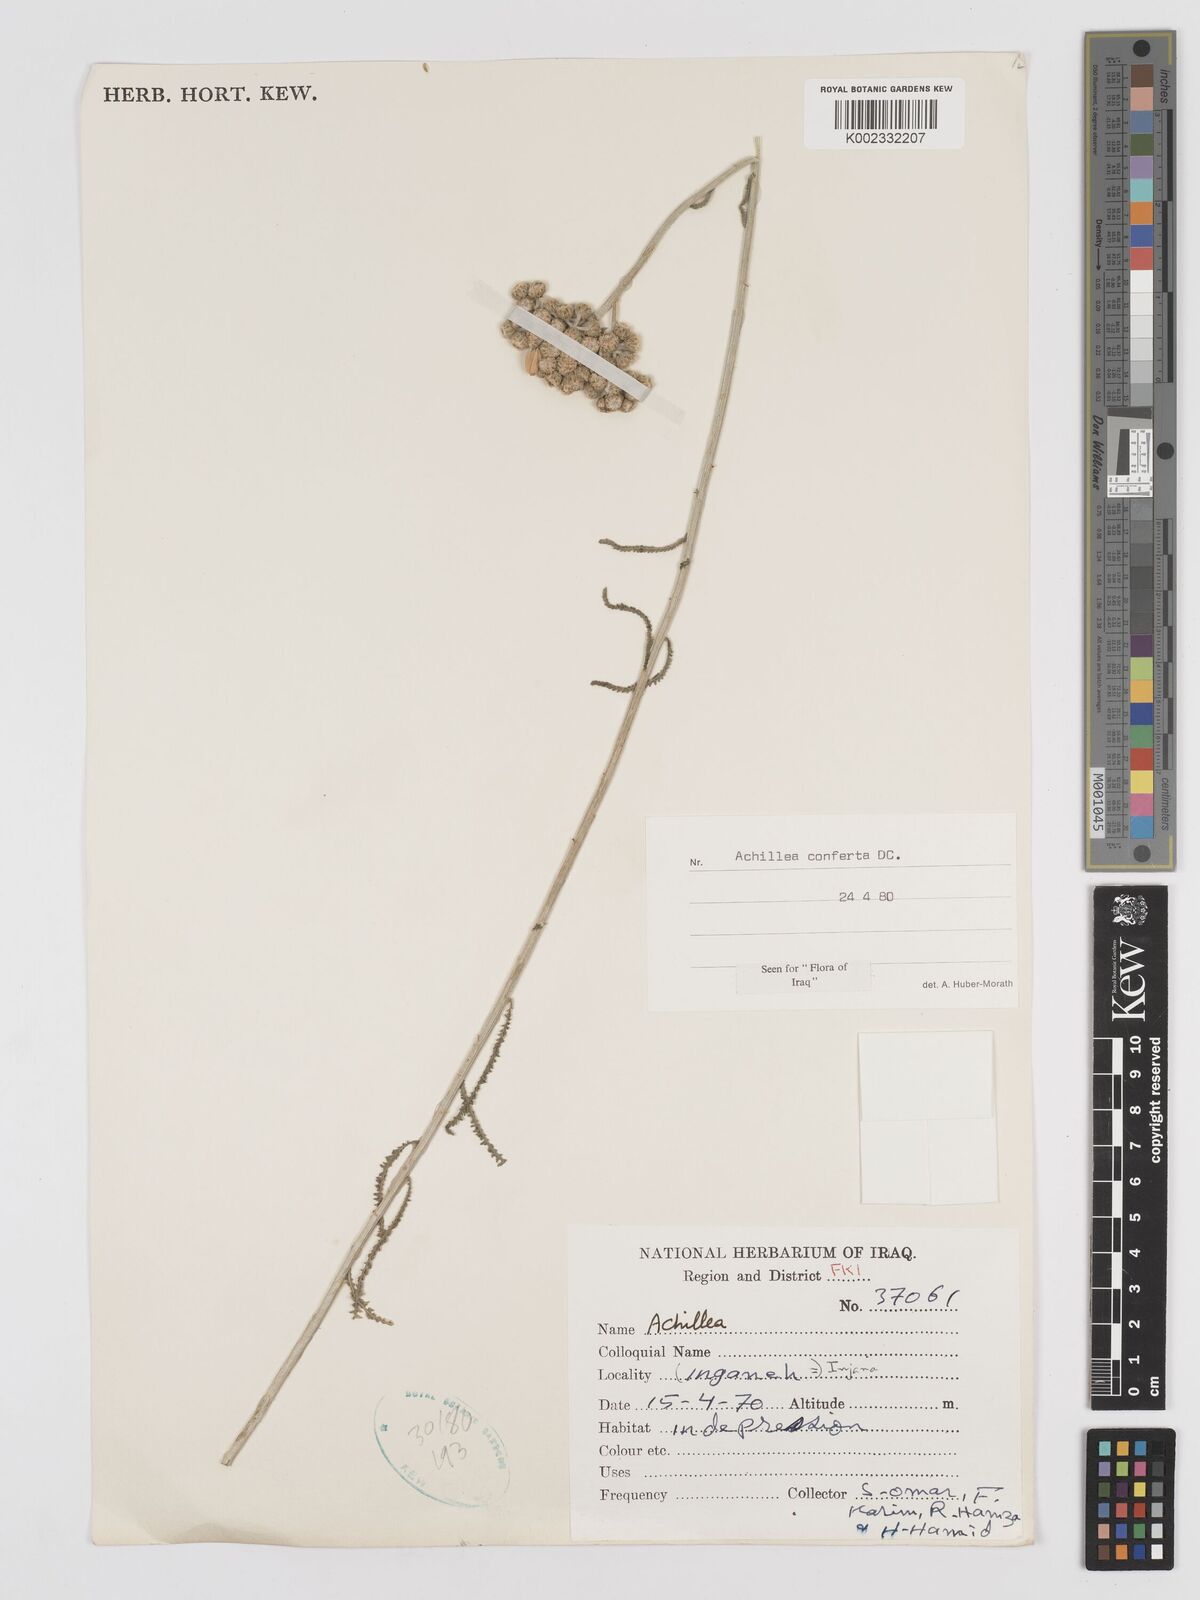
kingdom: Plantae
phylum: Tracheophyta
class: Magnoliopsida
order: Asterales
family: Asteraceae
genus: Achillea
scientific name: Achillea conferta
